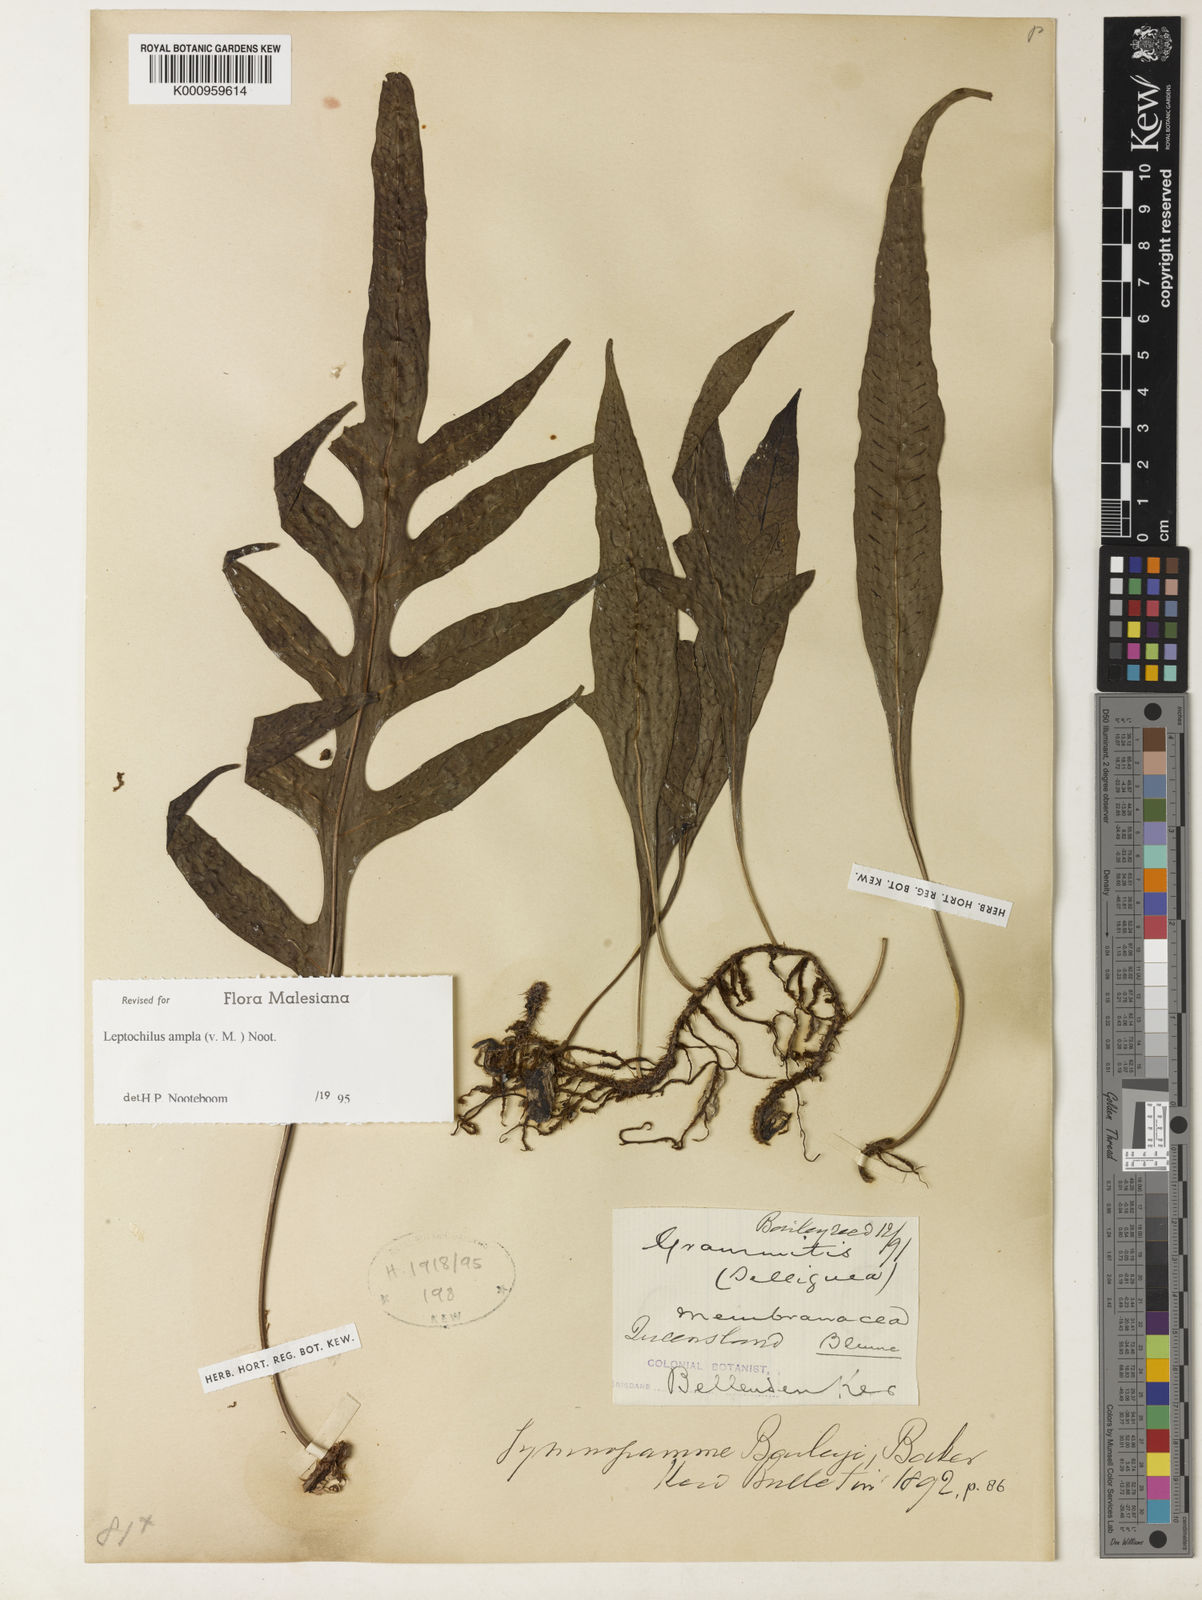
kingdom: Plantae
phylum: Tracheophyta
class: Polypodiopsida
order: Polypodiales
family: Polypodiaceae
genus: Lecanopteris
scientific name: Lecanopteris sayeri
